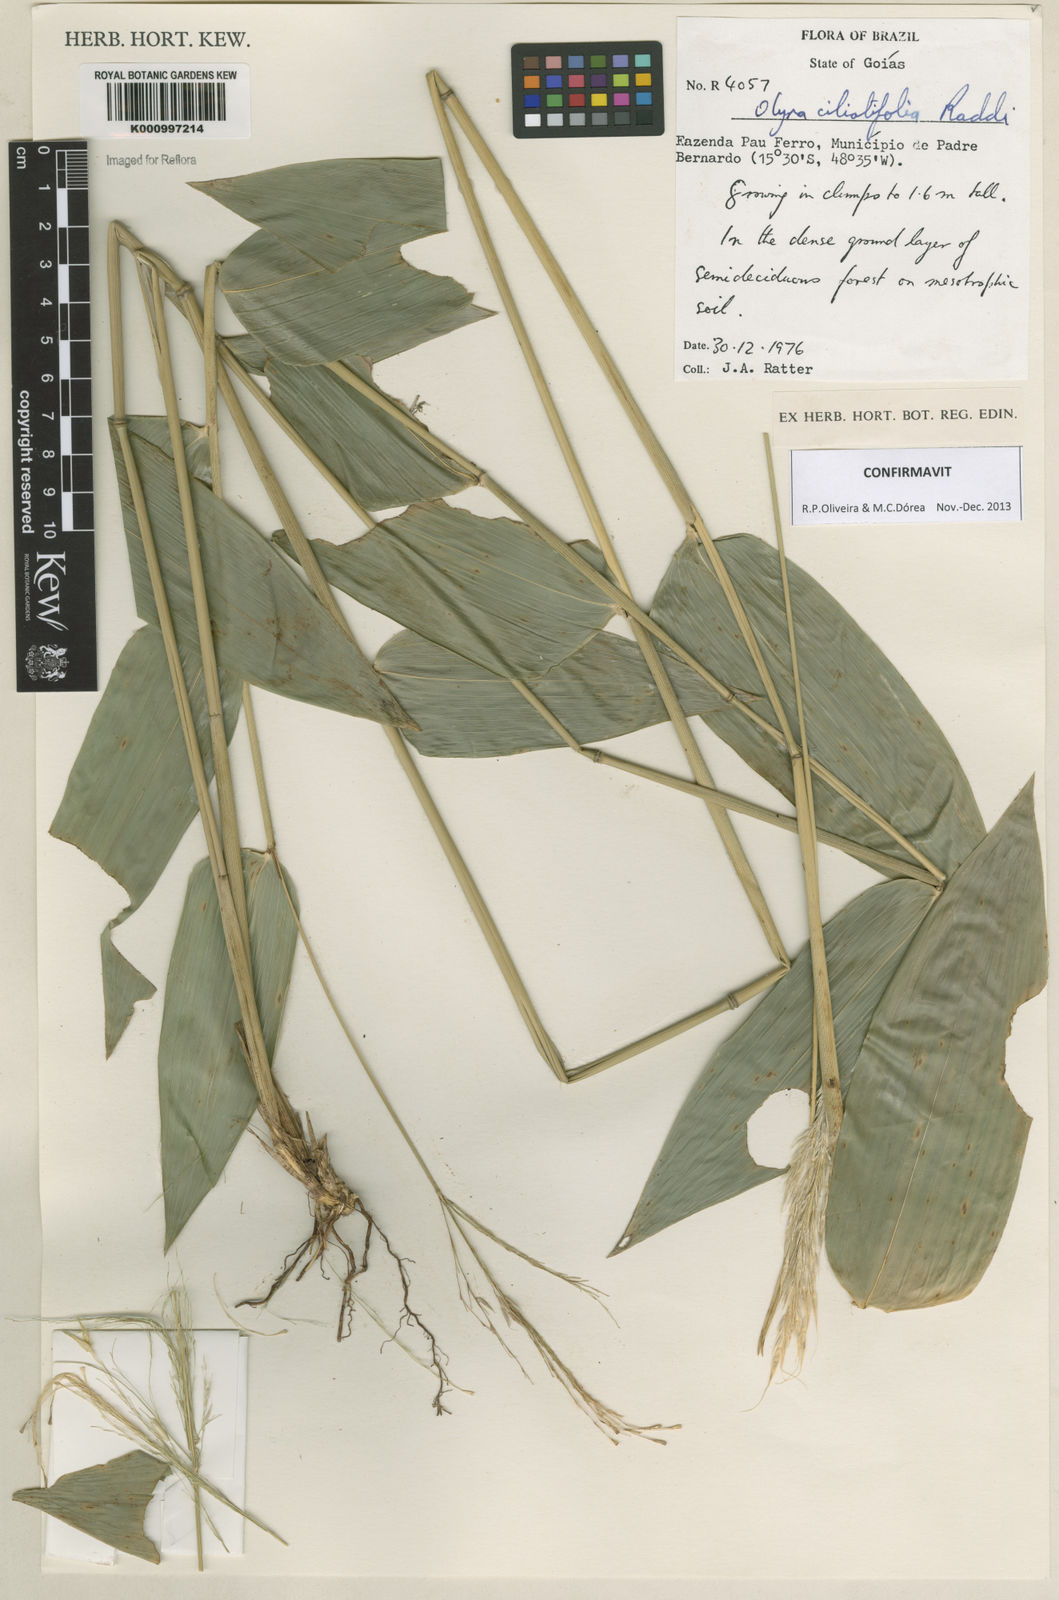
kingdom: Plantae
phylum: Tracheophyta
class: Liliopsida
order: Poales
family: Poaceae
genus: Olyra
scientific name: Olyra ciliatifolia
